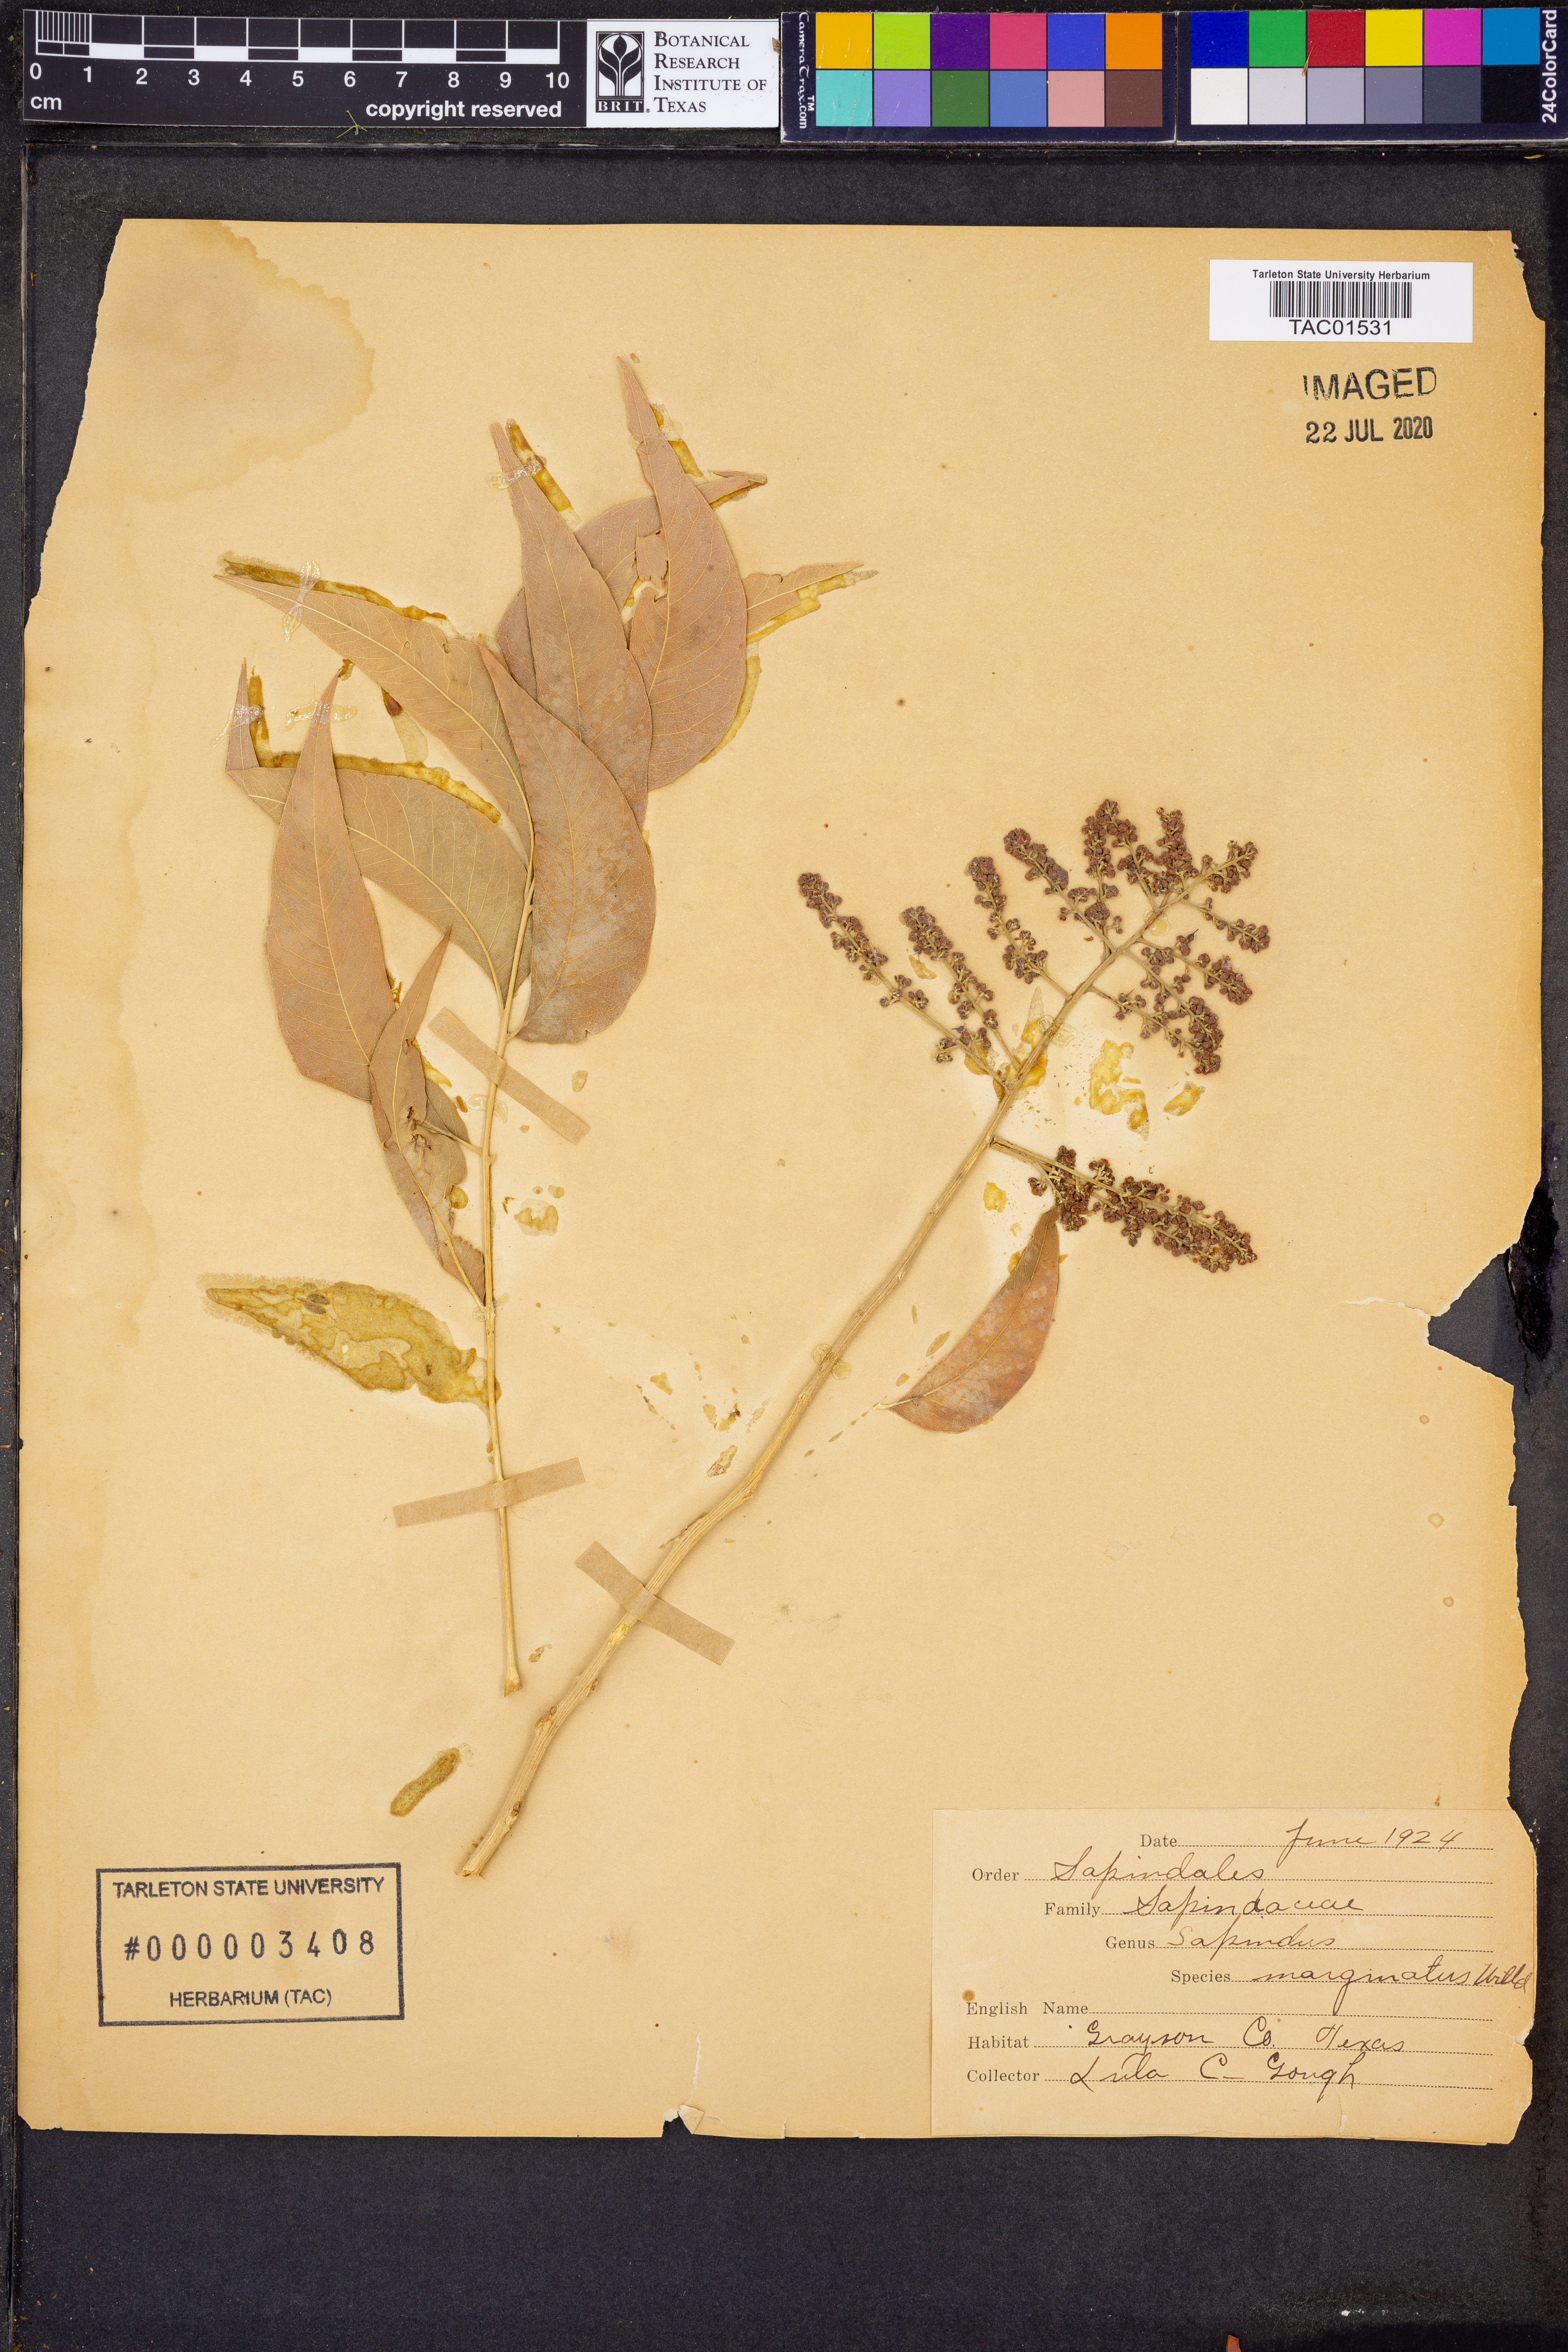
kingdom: Plantae
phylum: Tracheophyta
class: Magnoliopsida
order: Sapindales
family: Sapindaceae
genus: Sapindus
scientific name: Sapindus saponaria
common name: Wingleaf soapberry
